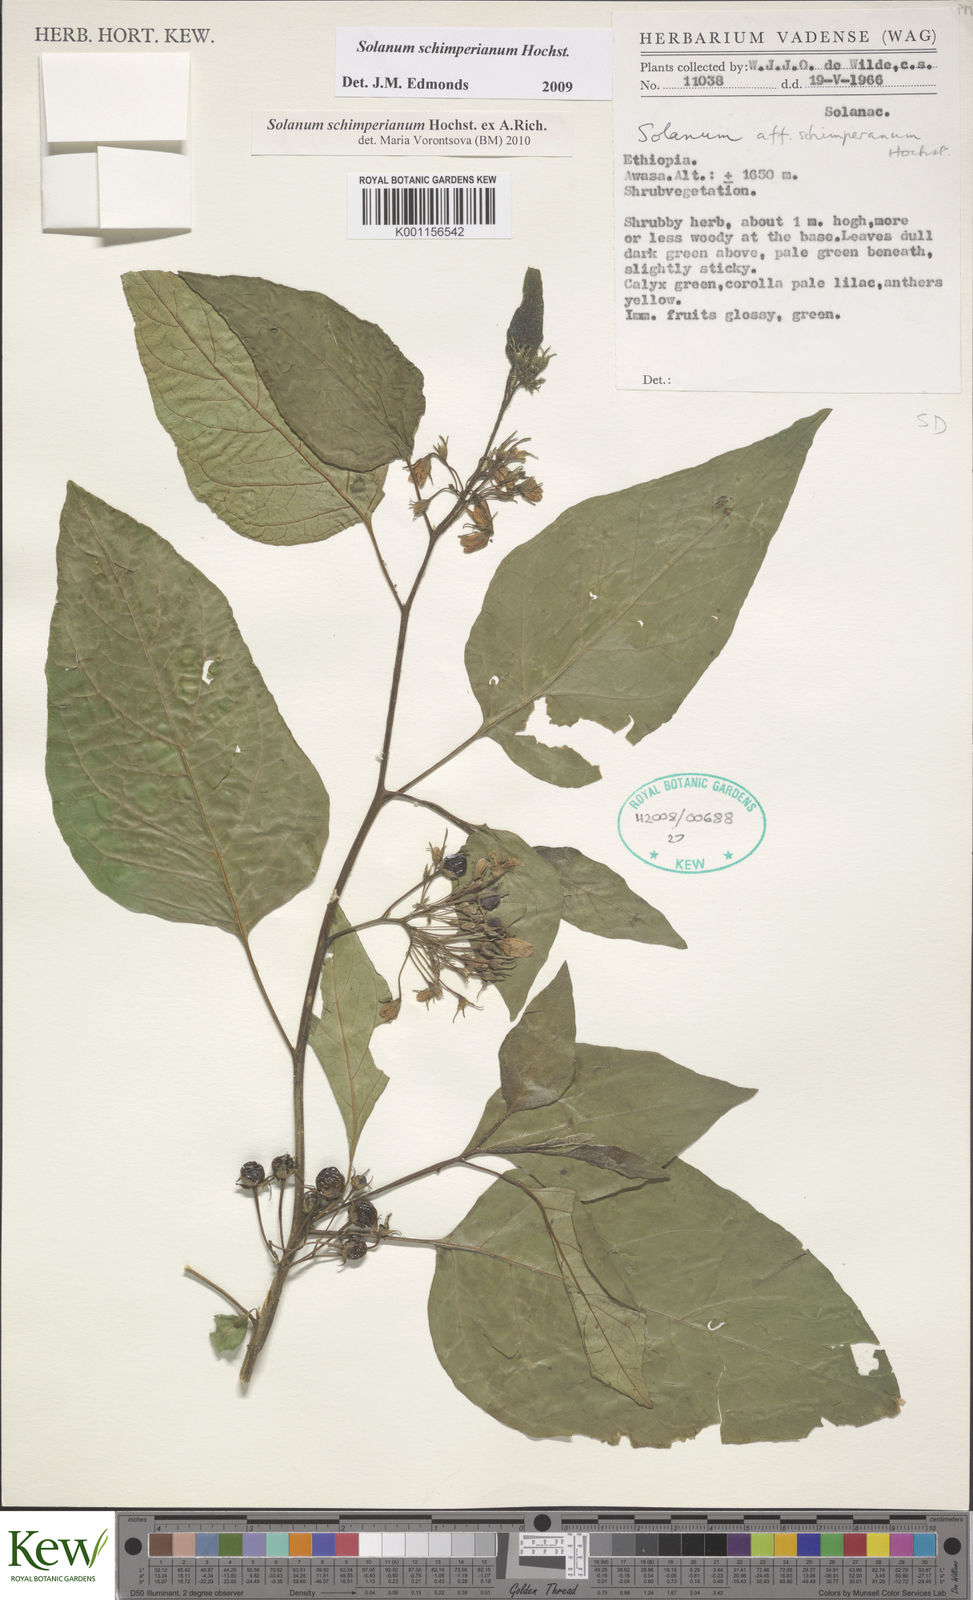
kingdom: Plantae
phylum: Tracheophyta
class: Magnoliopsida
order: Solanales
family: Solanaceae
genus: Solanum
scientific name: Solanum
